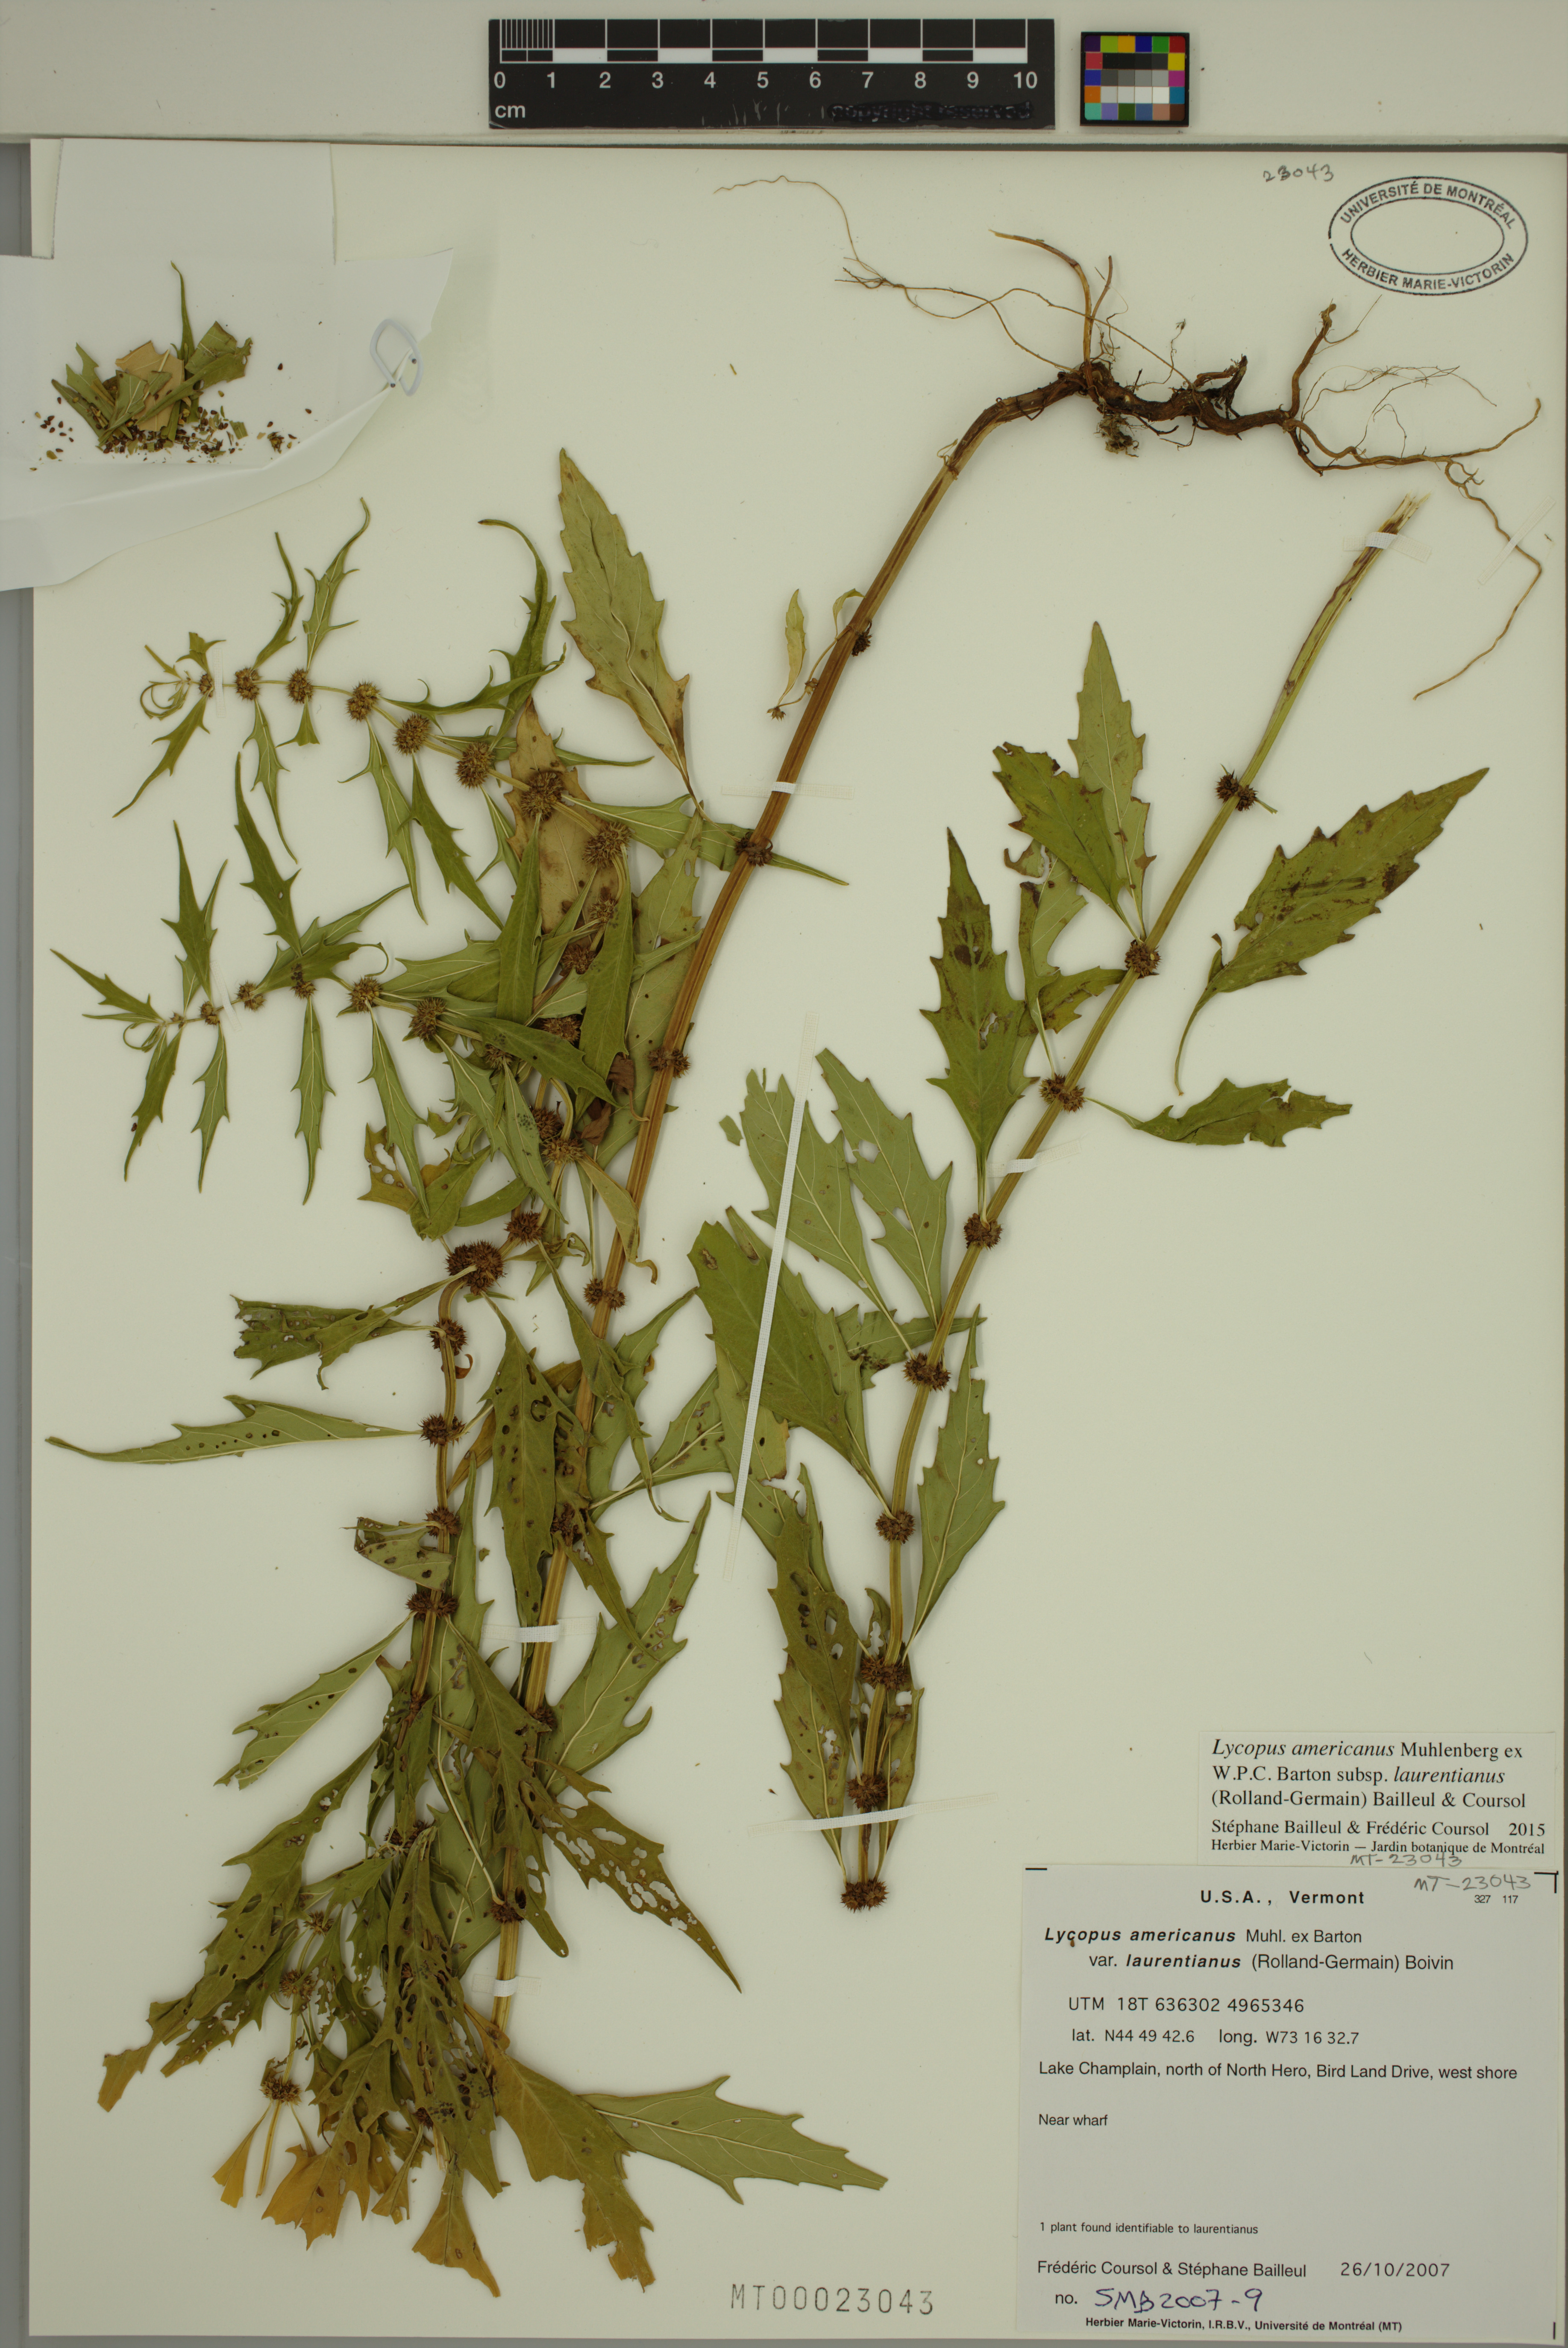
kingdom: Plantae
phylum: Tracheophyta
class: Magnoliopsida
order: Lamiales
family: Lamiaceae
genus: Lycopus
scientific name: Lycopus americanus
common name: American bugleweed
